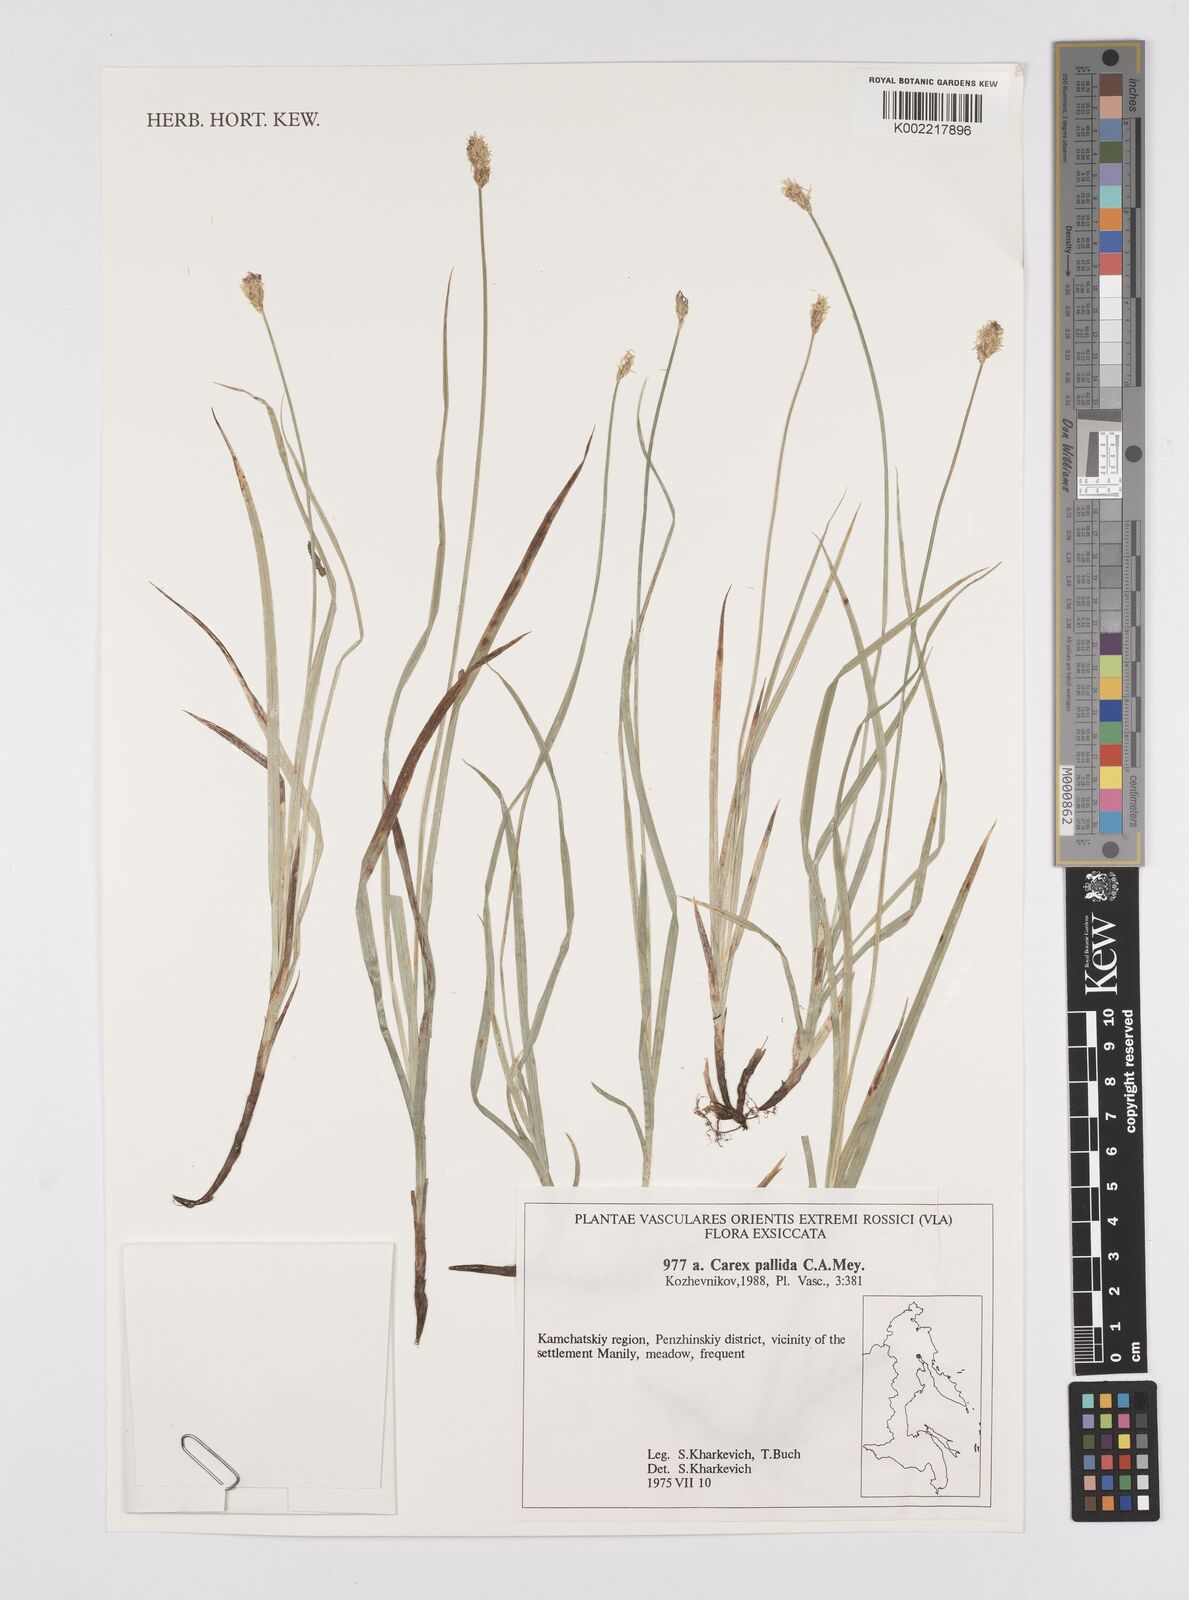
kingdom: Plantae
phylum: Tracheophyta
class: Liliopsida
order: Poales
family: Cyperaceae
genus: Carex
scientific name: Carex accrescens
